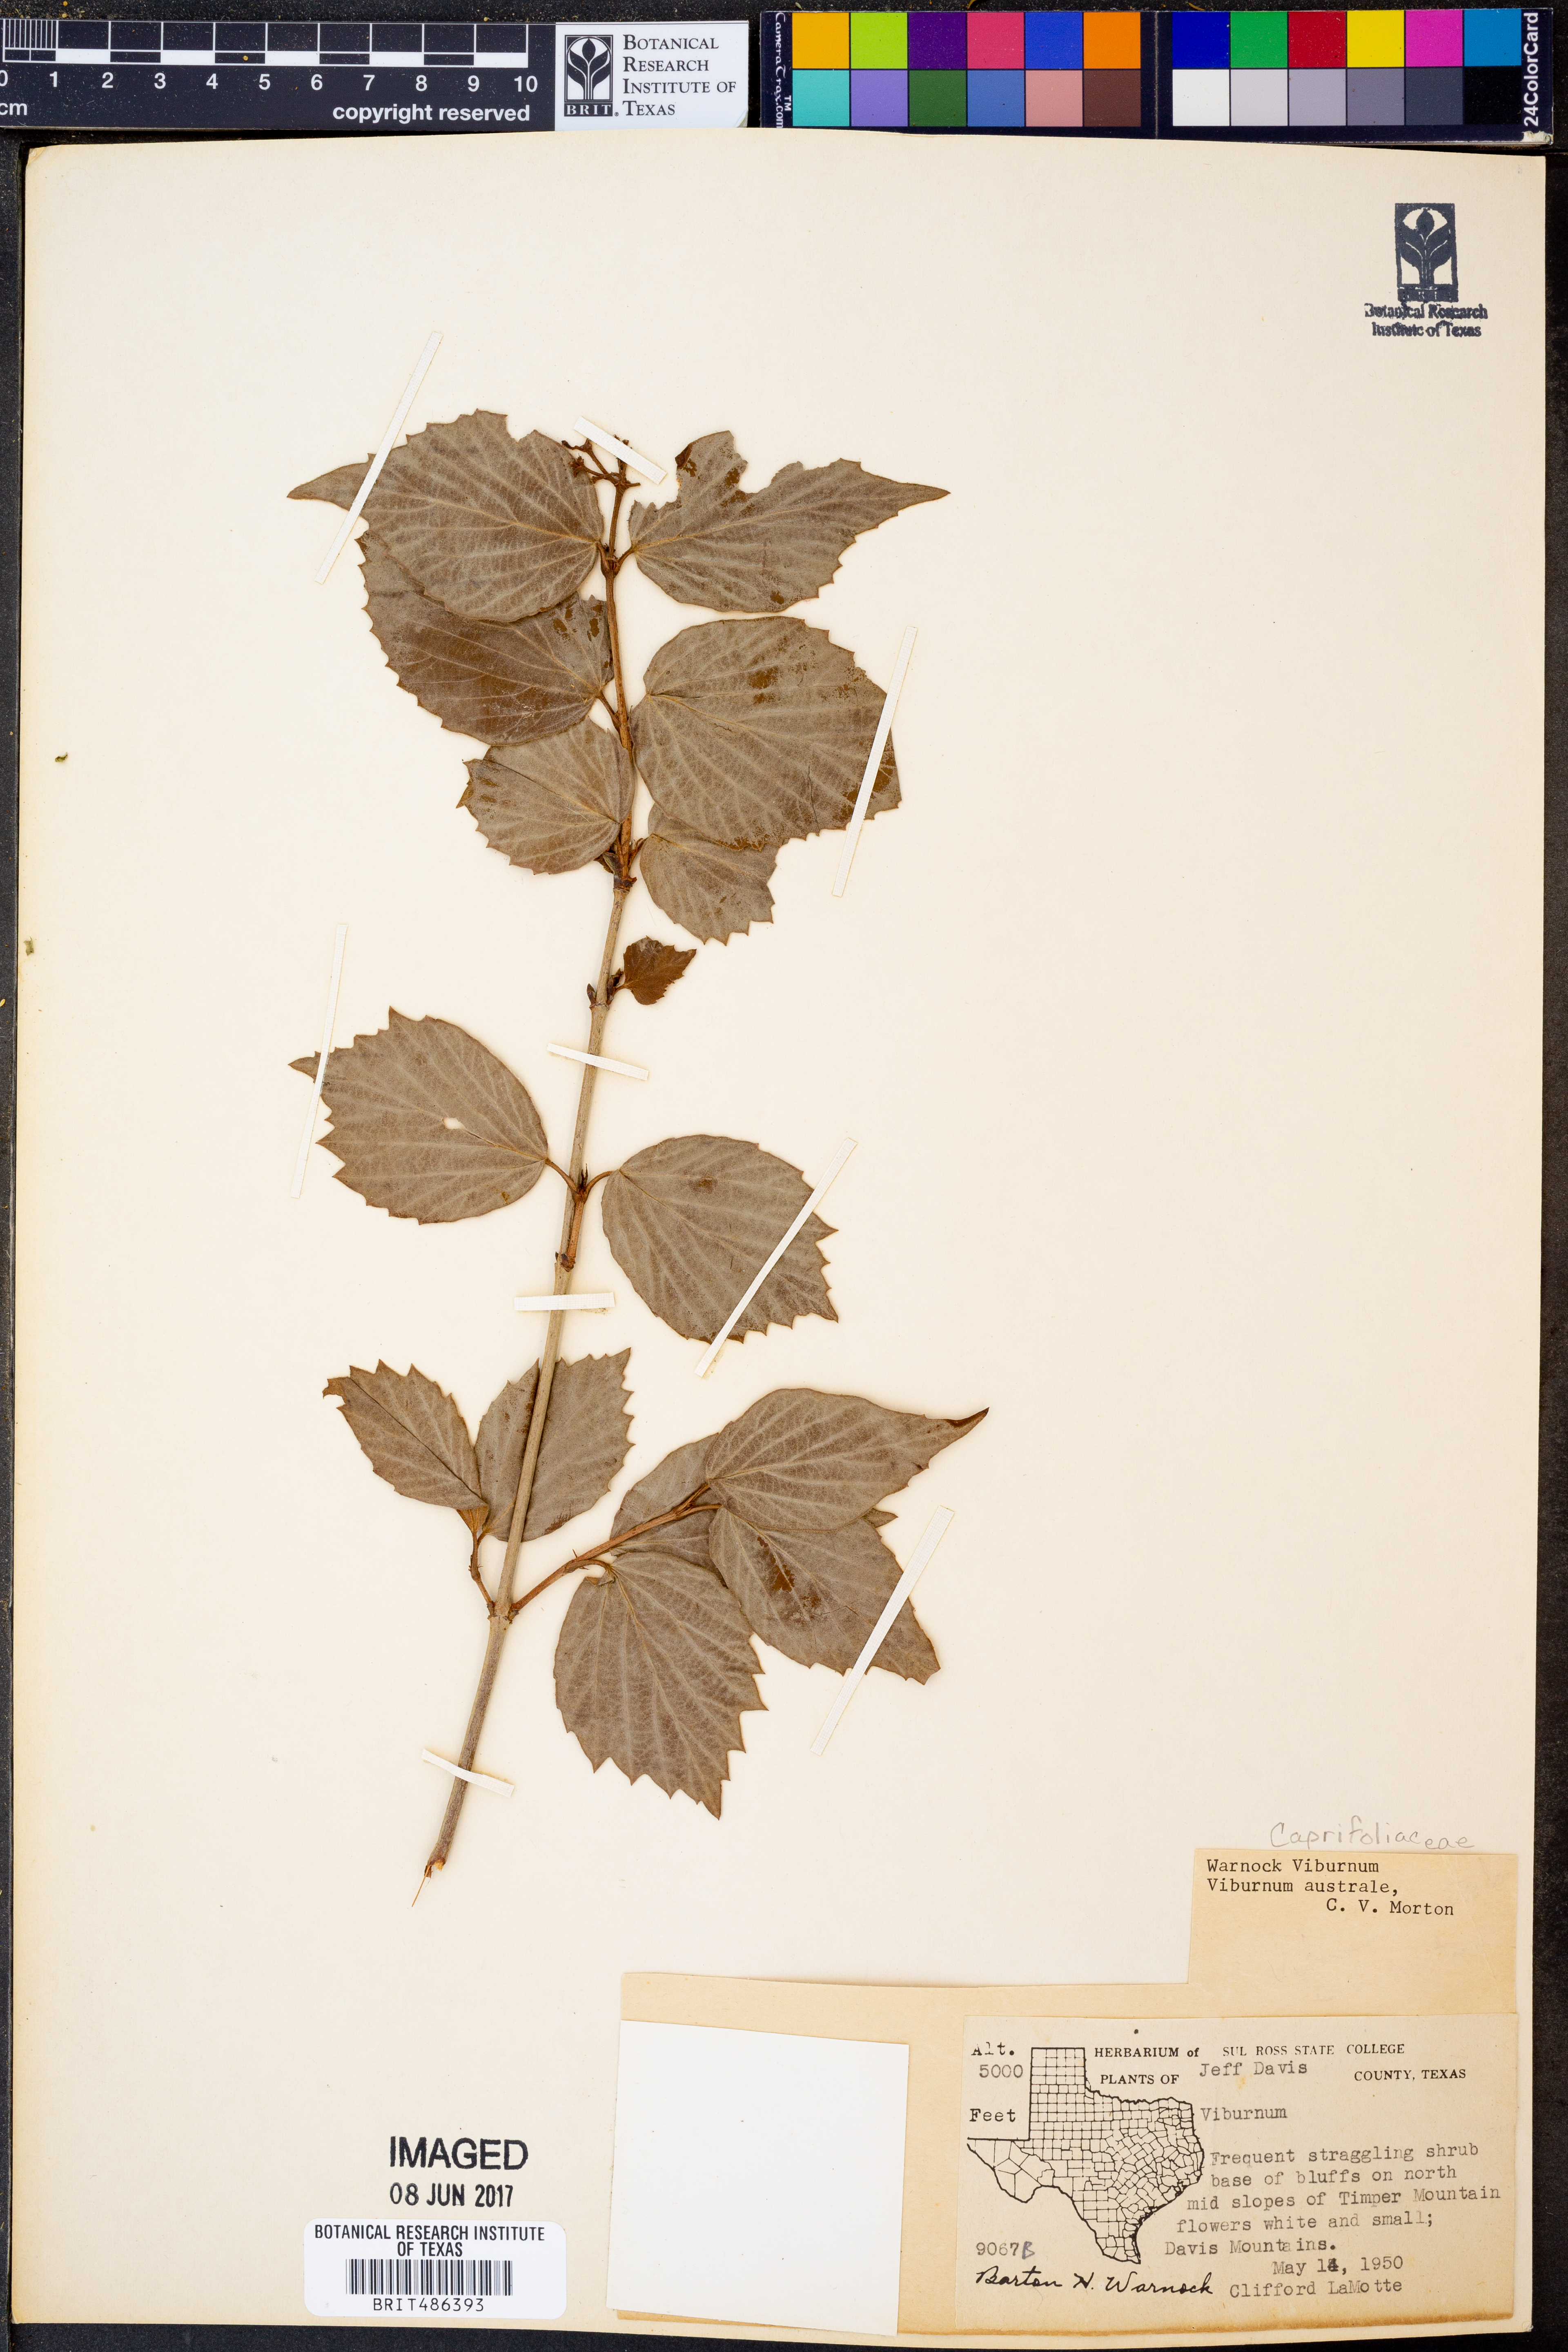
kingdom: Plantae
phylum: Tracheophyta
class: Magnoliopsida
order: Dipsacales
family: Viburnaceae
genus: Viburnum
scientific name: Viburnum australe
